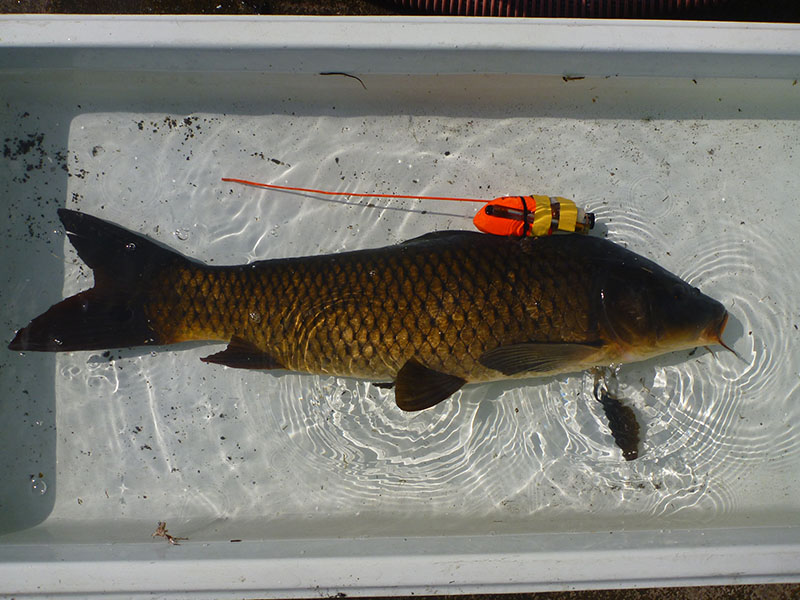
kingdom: Animalia
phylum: Chordata
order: Cypriniformes
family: Cyprinidae
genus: Cyprinus
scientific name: Cyprinus carpio
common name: コイ
